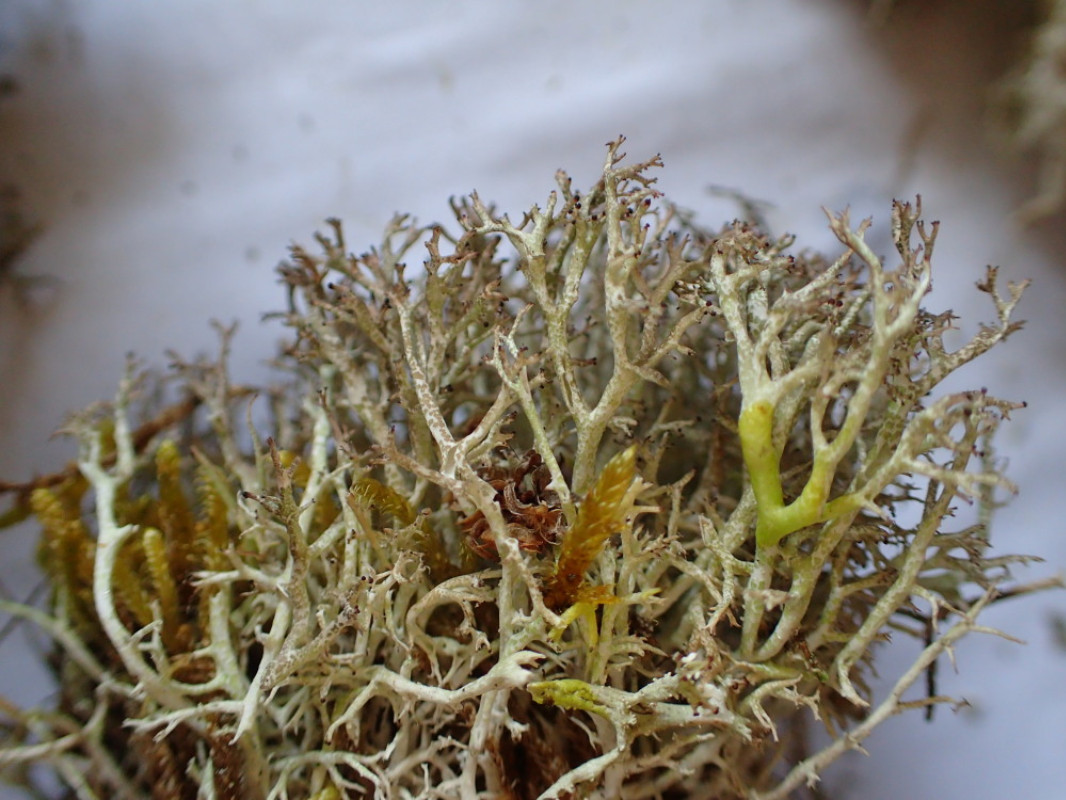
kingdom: Fungi
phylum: Ascomycota
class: Lecanoromycetes
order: Lecanorales
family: Cladoniaceae
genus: Cladonia
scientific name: Cladonia rangiformis
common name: spættet bægerlav
